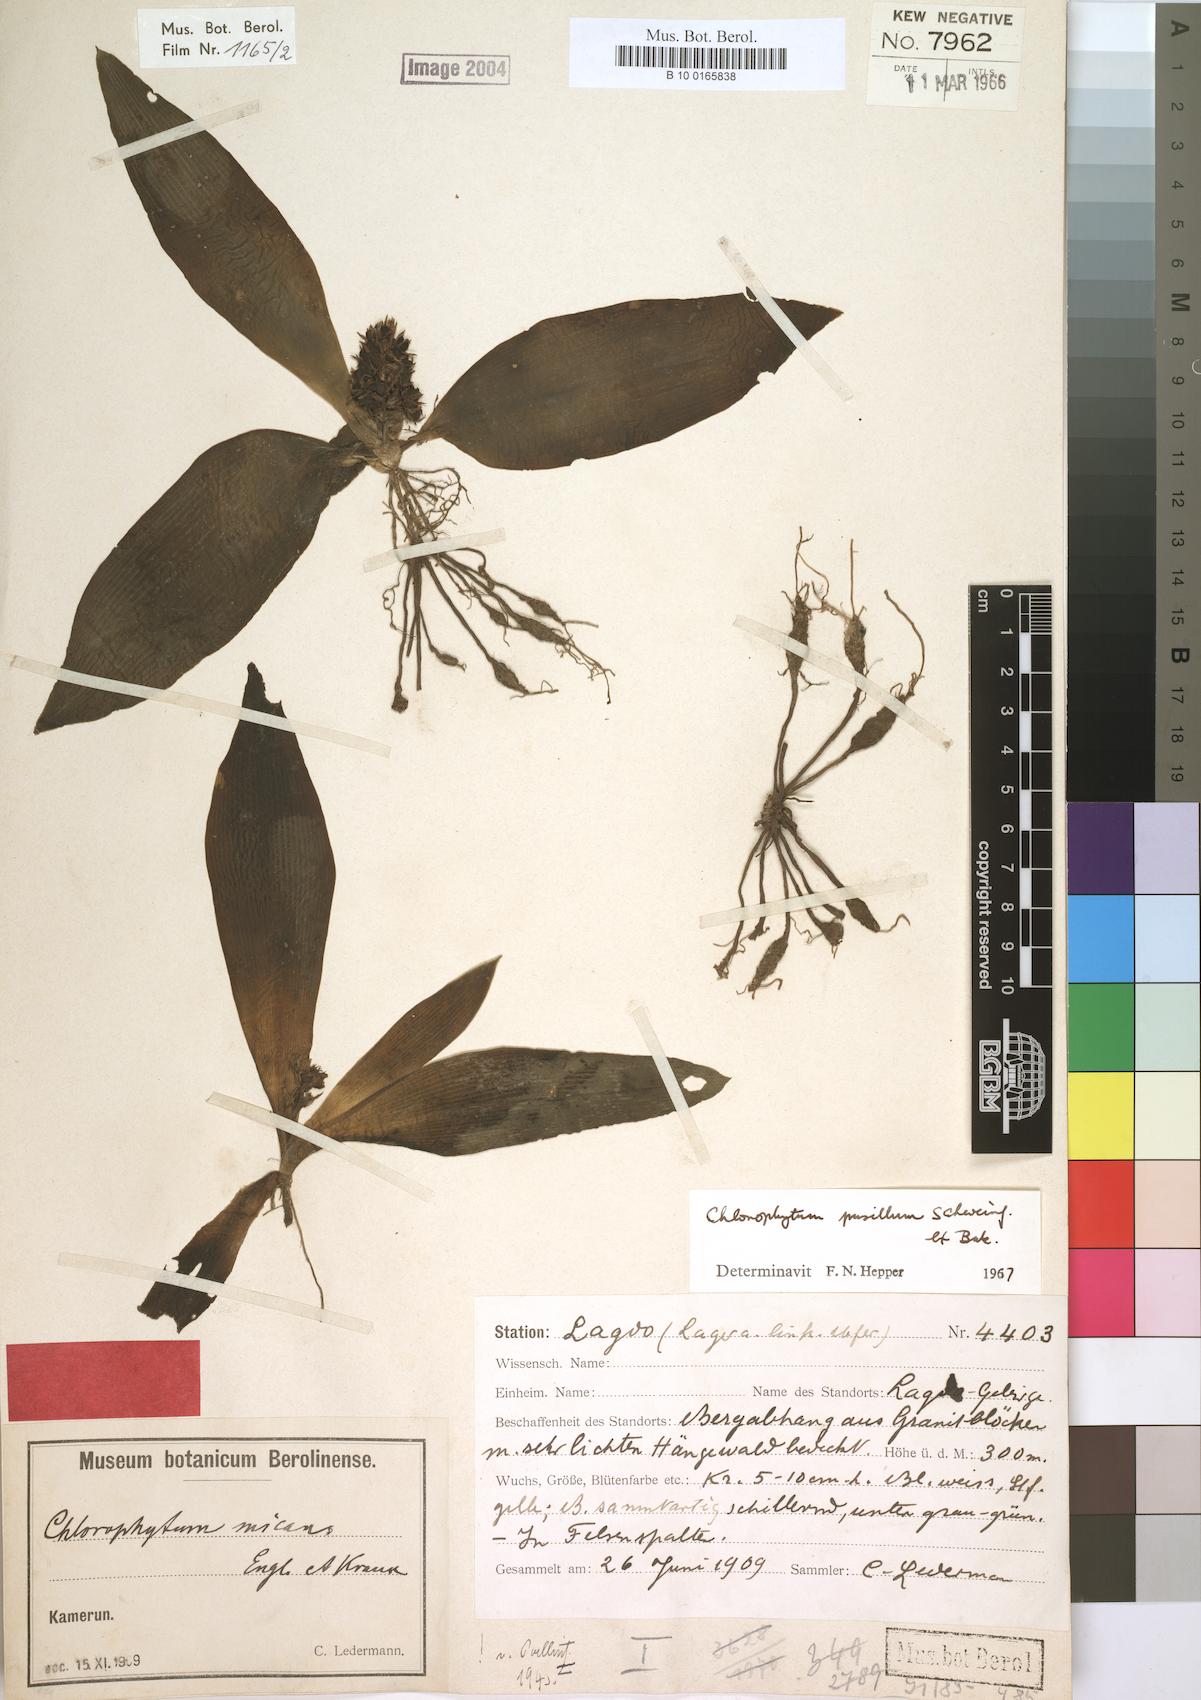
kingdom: Plantae
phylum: Tracheophyta
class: Liliopsida
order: Asparagales
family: Asparagaceae
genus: Chlorophytum
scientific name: Chlorophytum pusillum
